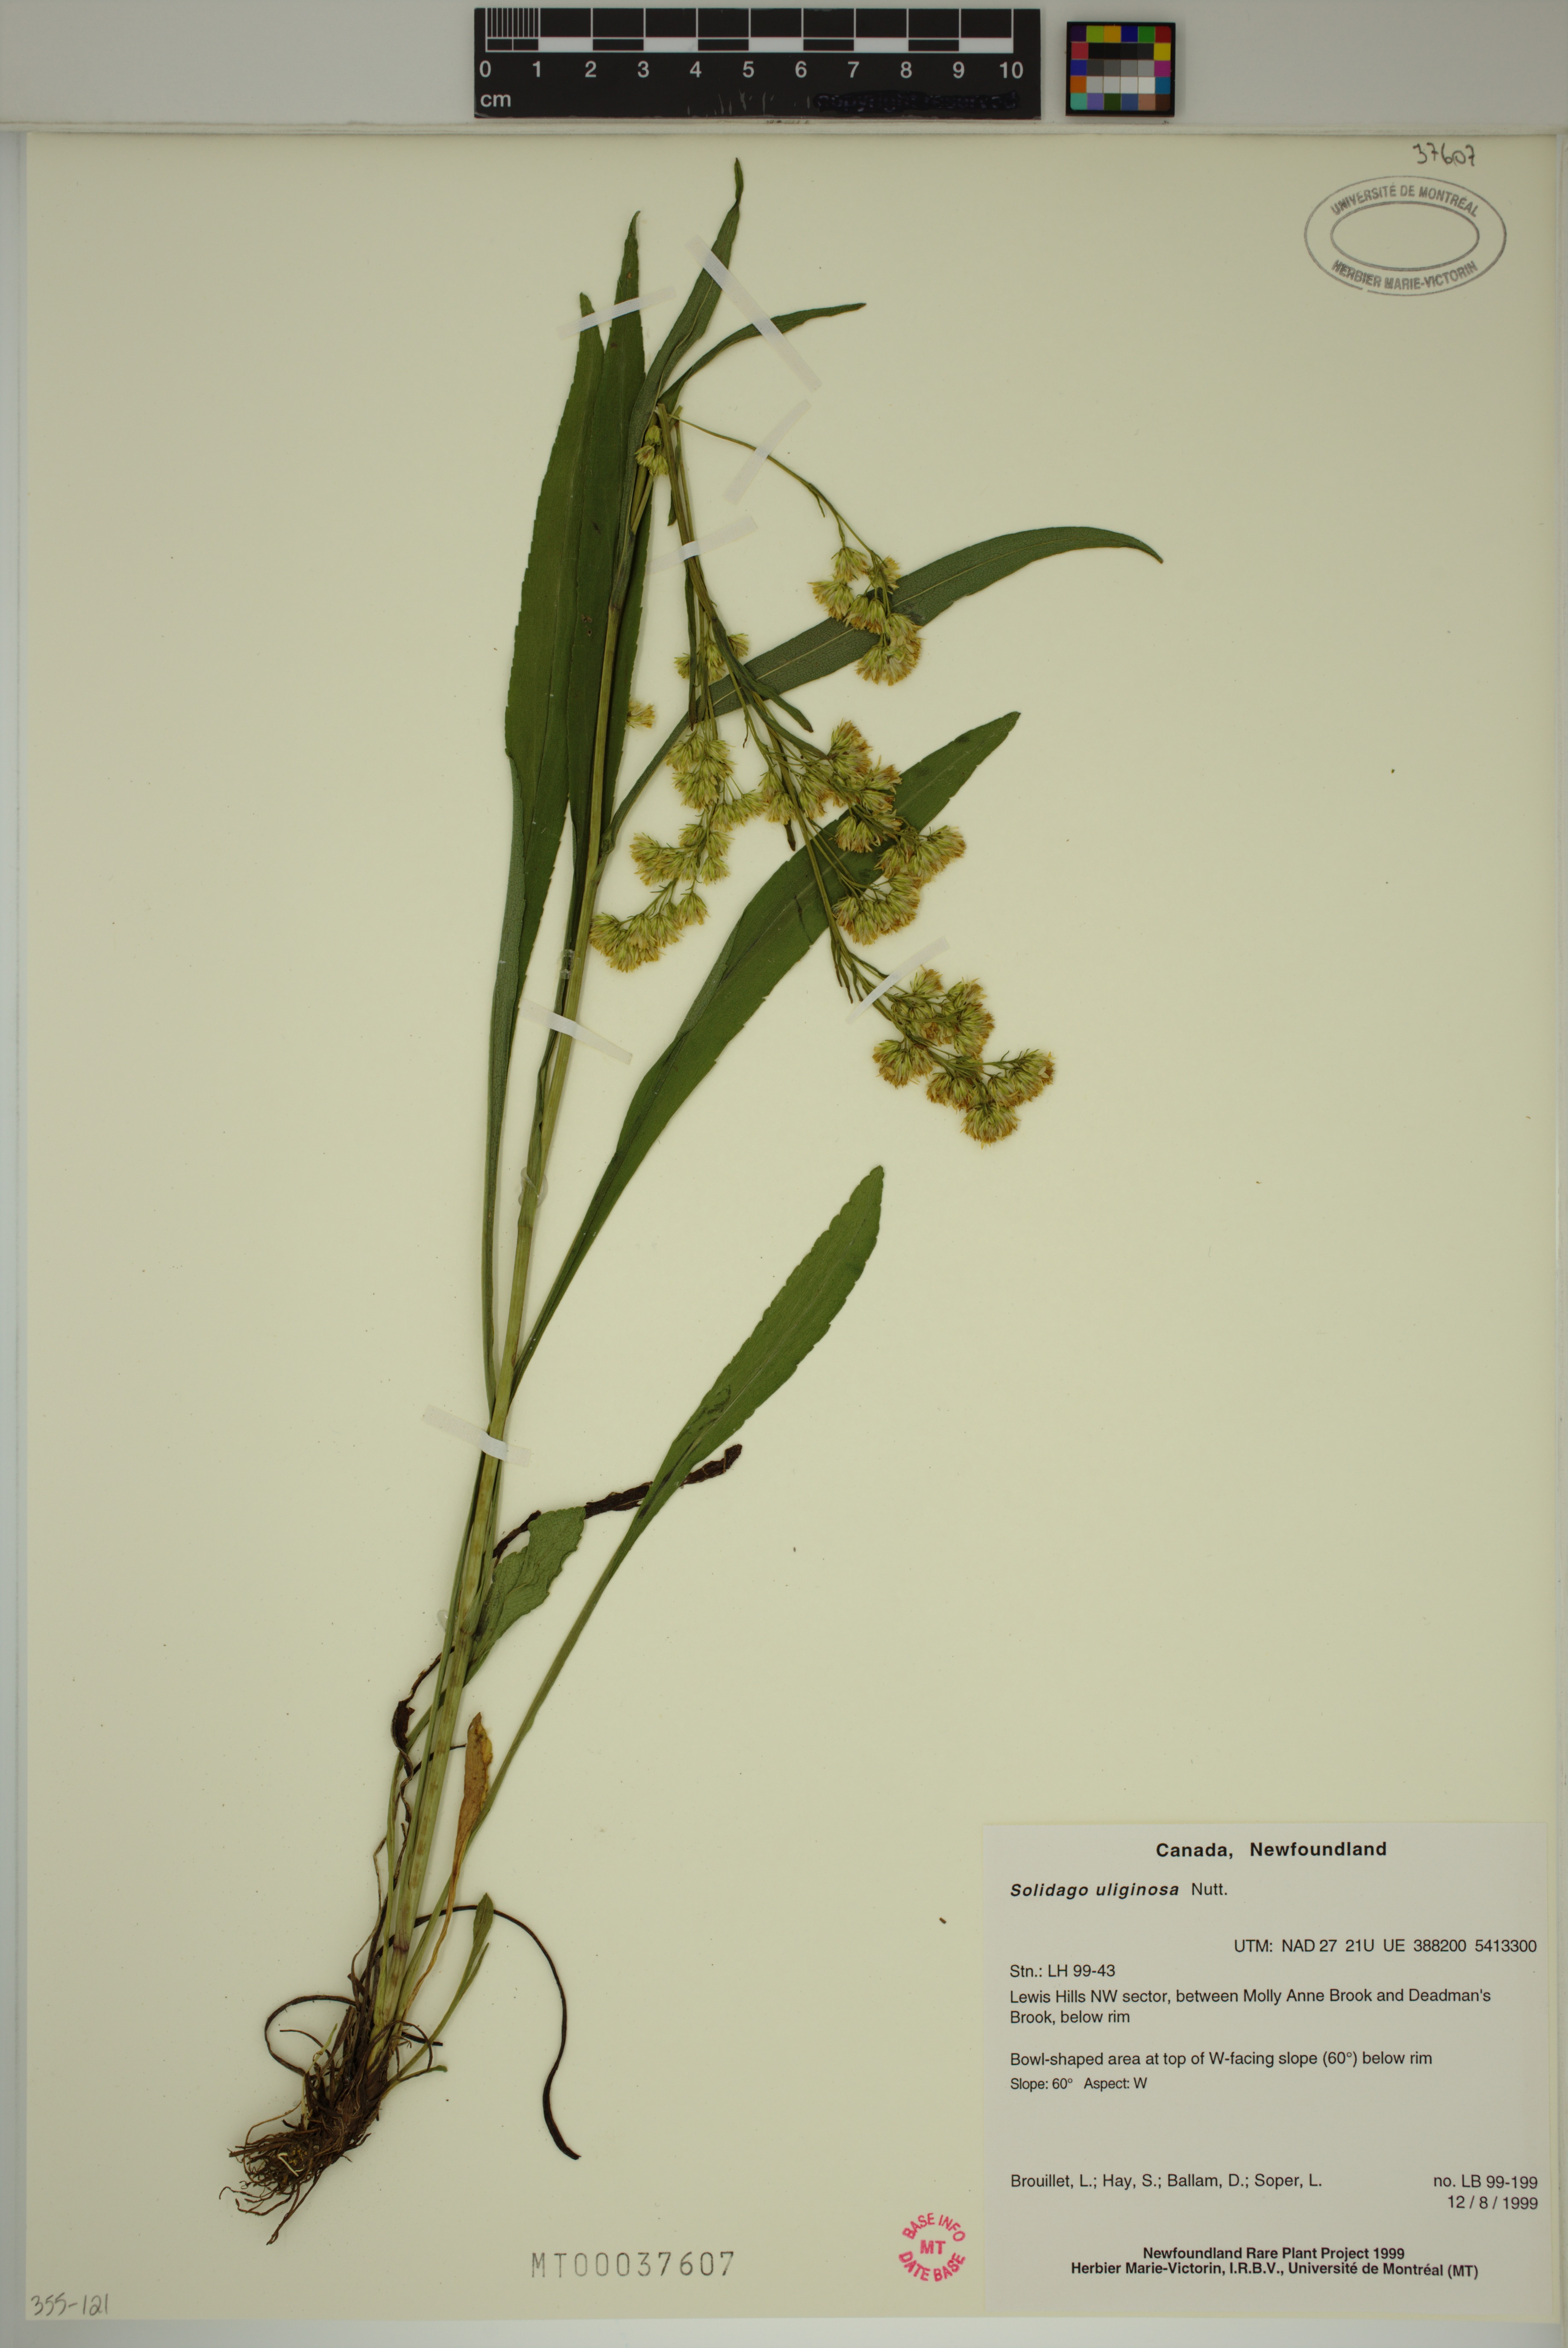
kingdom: Plantae
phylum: Tracheophyta
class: Magnoliopsida
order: Asterales
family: Asteraceae
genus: Solidago
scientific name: Solidago uliginosa
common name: Bog goldenrod
